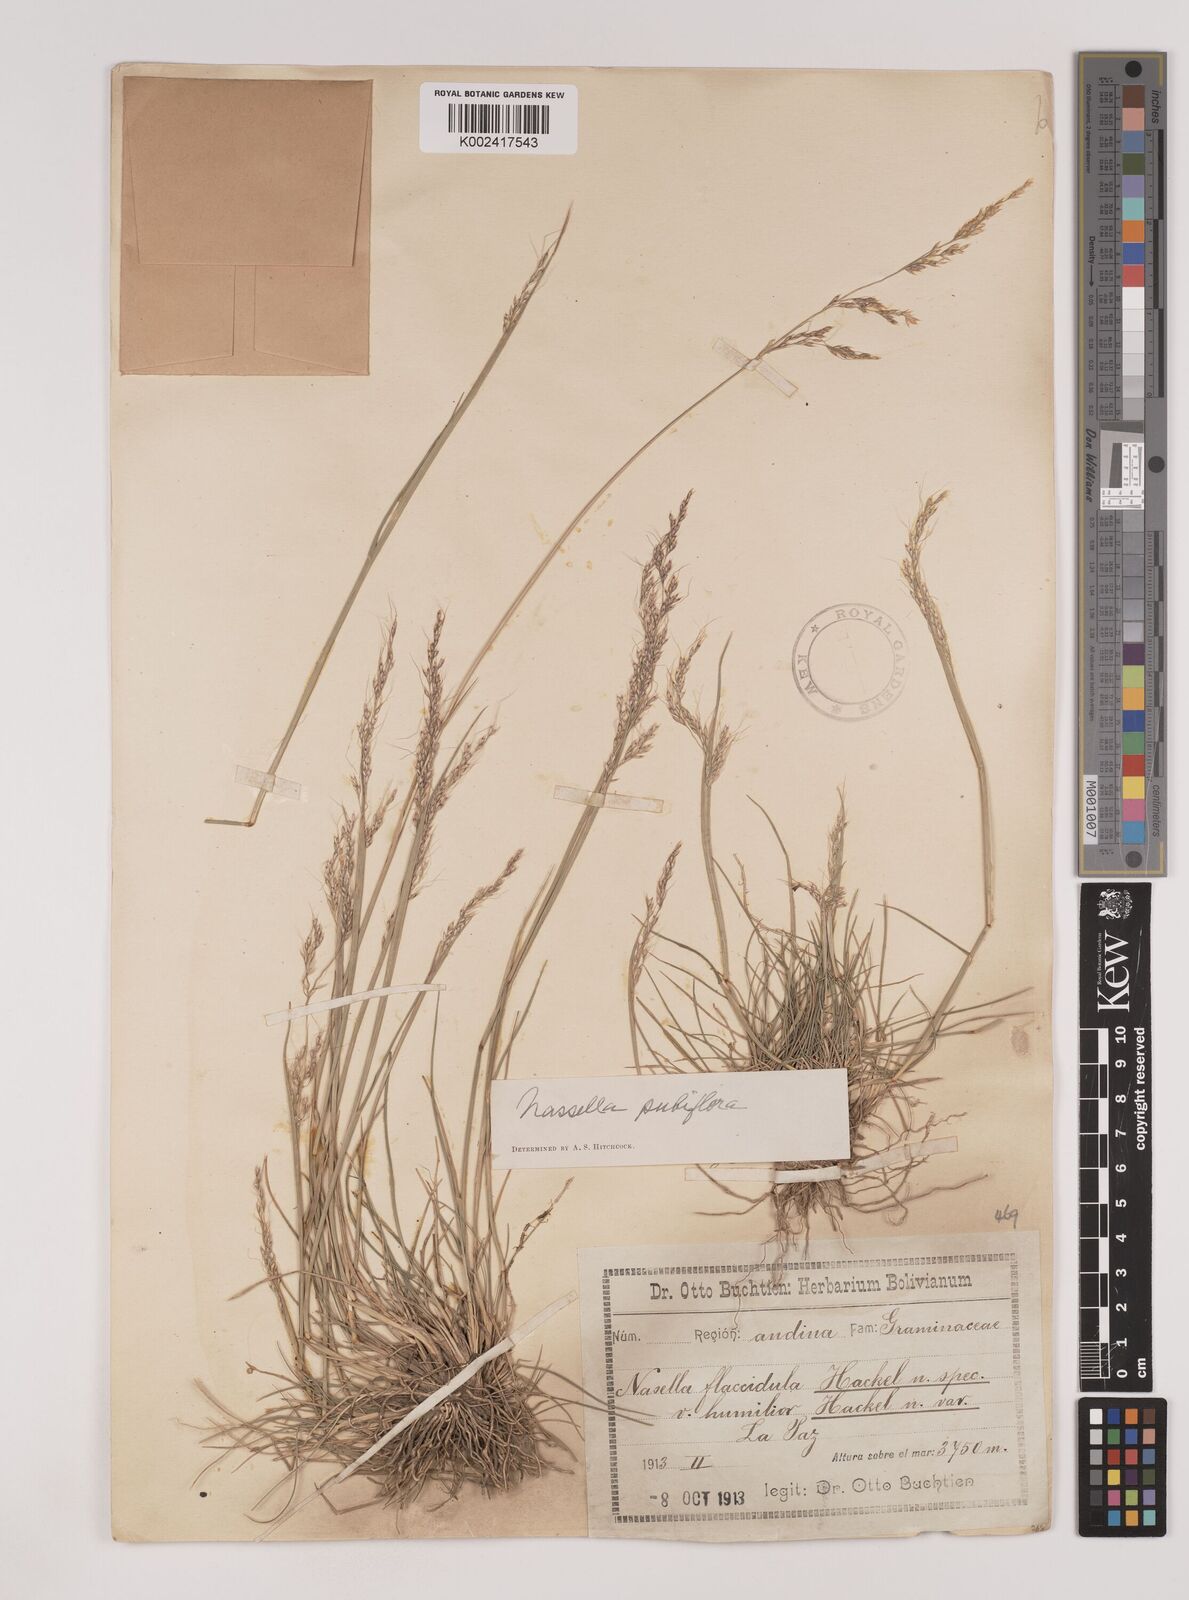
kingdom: Plantae
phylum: Tracheophyta
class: Liliopsida
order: Poales
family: Poaceae
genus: Nassella
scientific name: Nassella pubiflora
